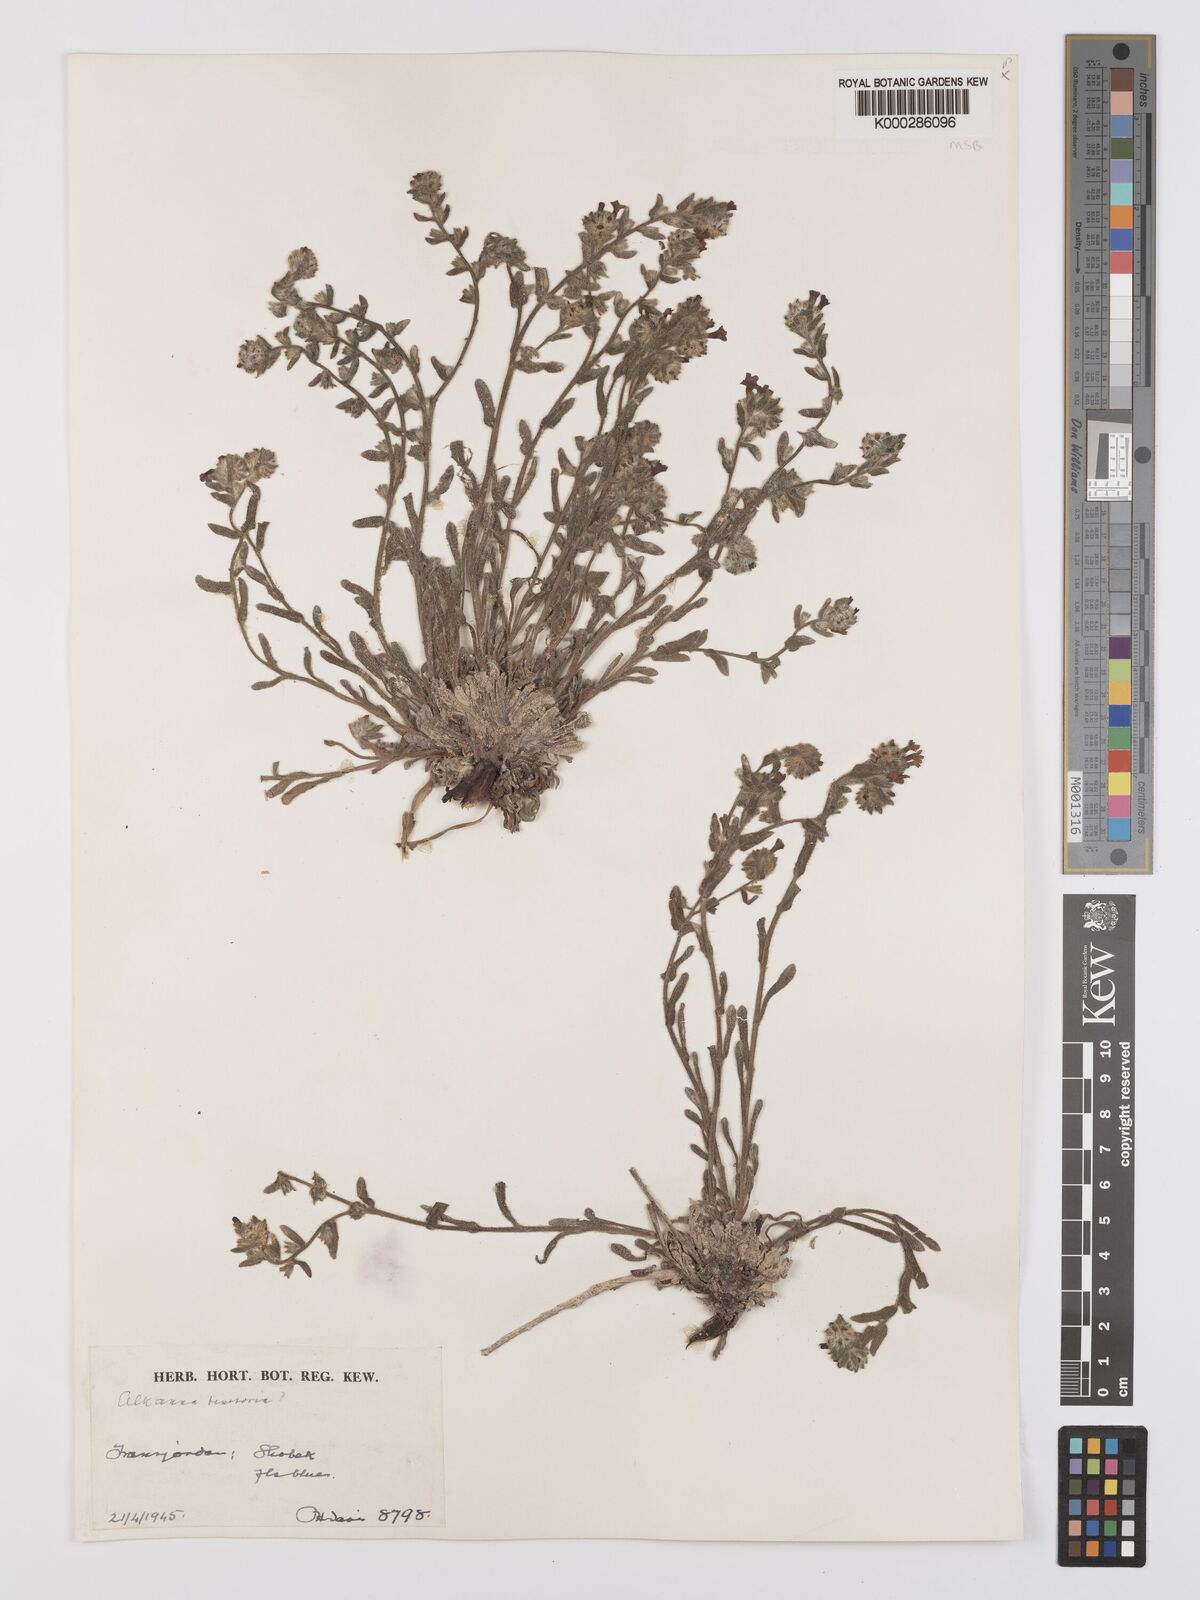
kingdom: Plantae
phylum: Tracheophyta
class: Magnoliopsida
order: Boraginales
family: Boraginaceae
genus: Alkanna
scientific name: Alkanna tinctoria
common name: Dyer's-alkanet
